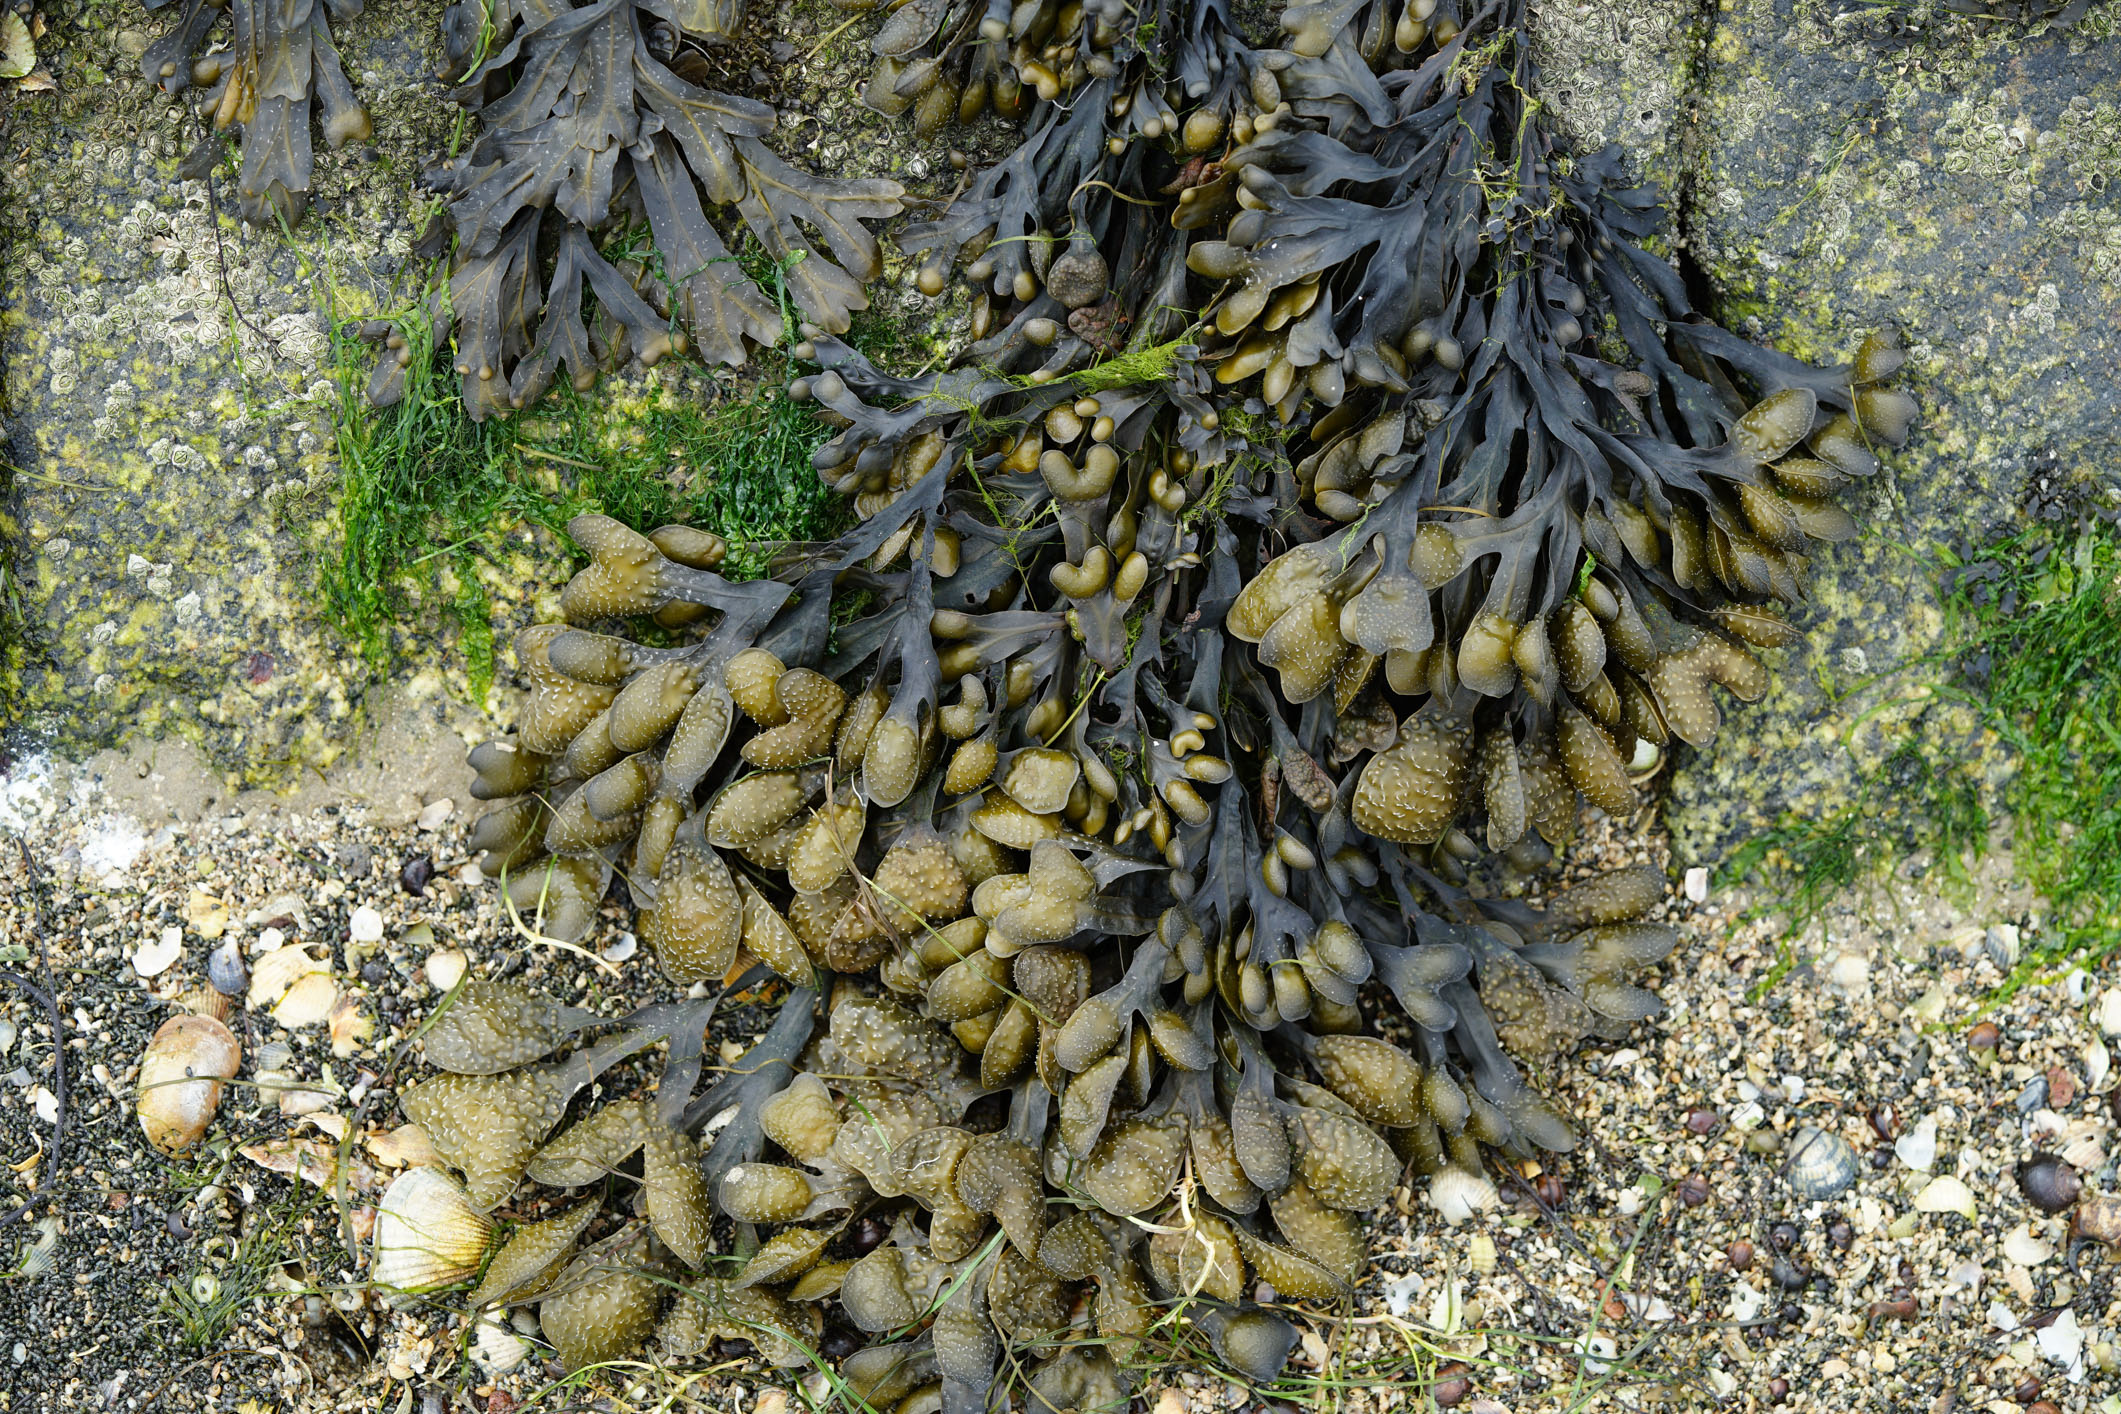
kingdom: Chromista
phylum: Ochrophyta
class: Phaeophyceae
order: Fucales
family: Fucaceae
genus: Fucus
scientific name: Fucus vesiculosus
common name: Bladder wrack
